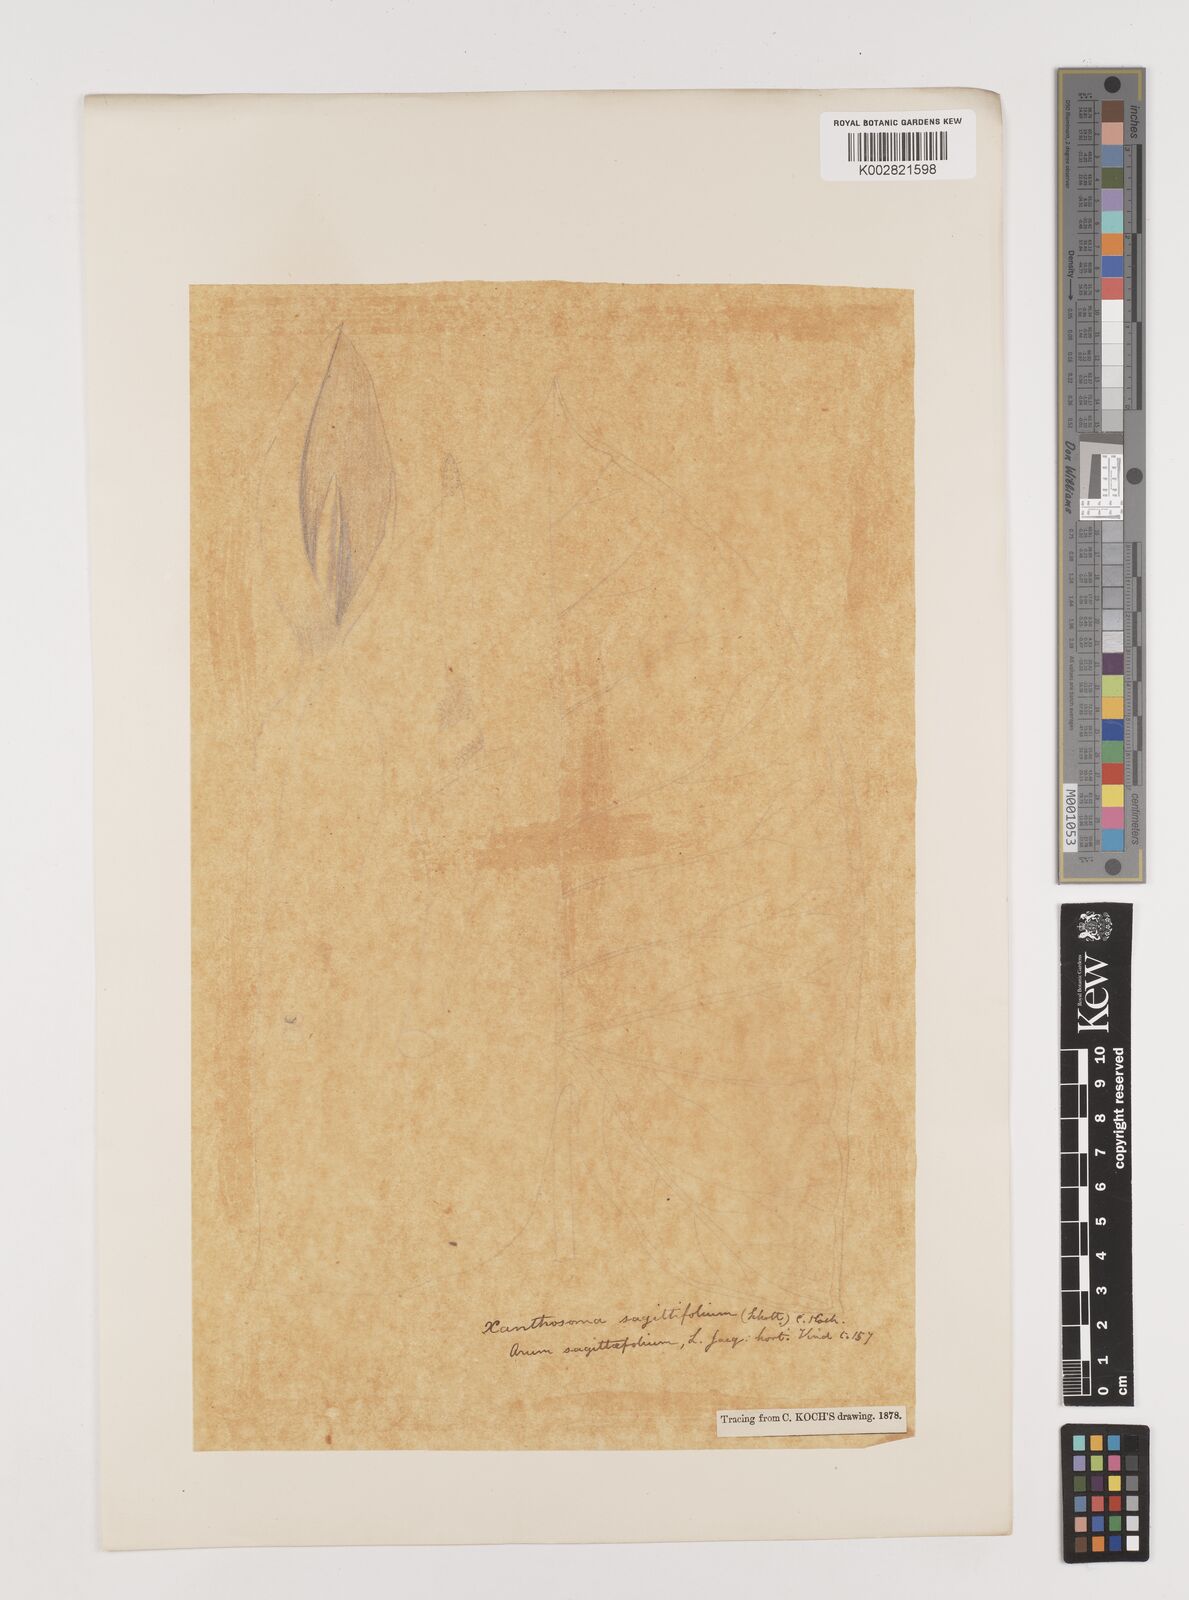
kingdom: Plantae
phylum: Tracheophyta
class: Liliopsida
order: Alismatales
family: Araceae
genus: Xanthosoma
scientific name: Xanthosoma sagittifolium
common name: Arrowleaf elephant's ear
